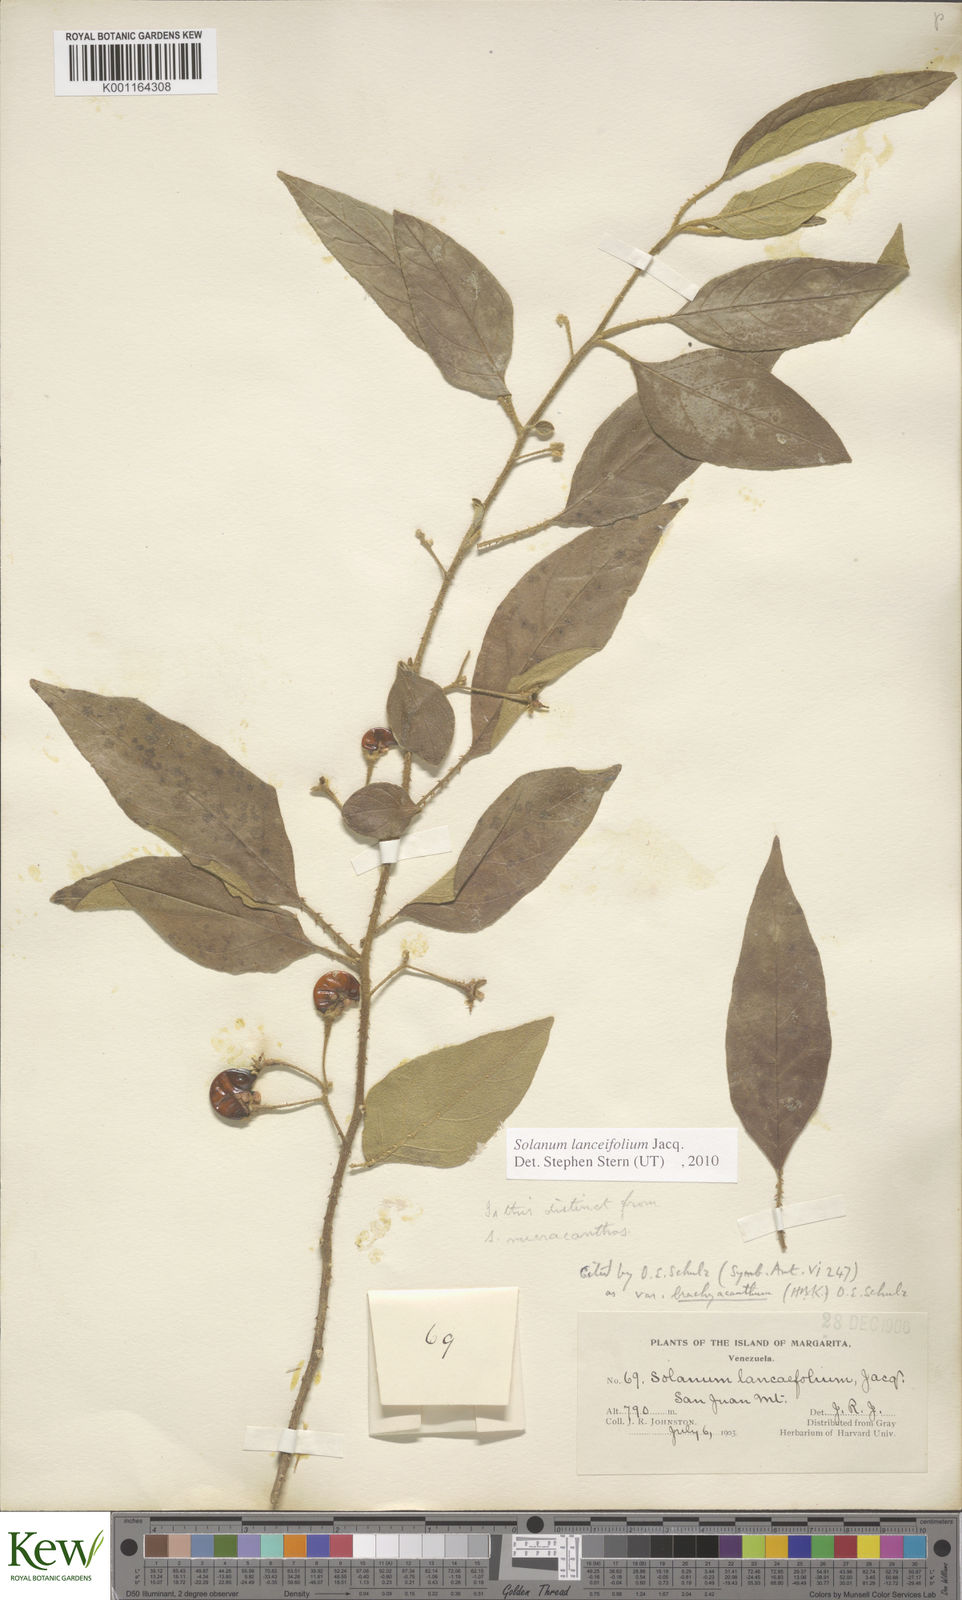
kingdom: Plantae
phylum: Tracheophyta
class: Magnoliopsida
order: Solanales
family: Solanaceae
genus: Solanum
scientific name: Solanum lanceifolium
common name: Lanceleaf nightshade
